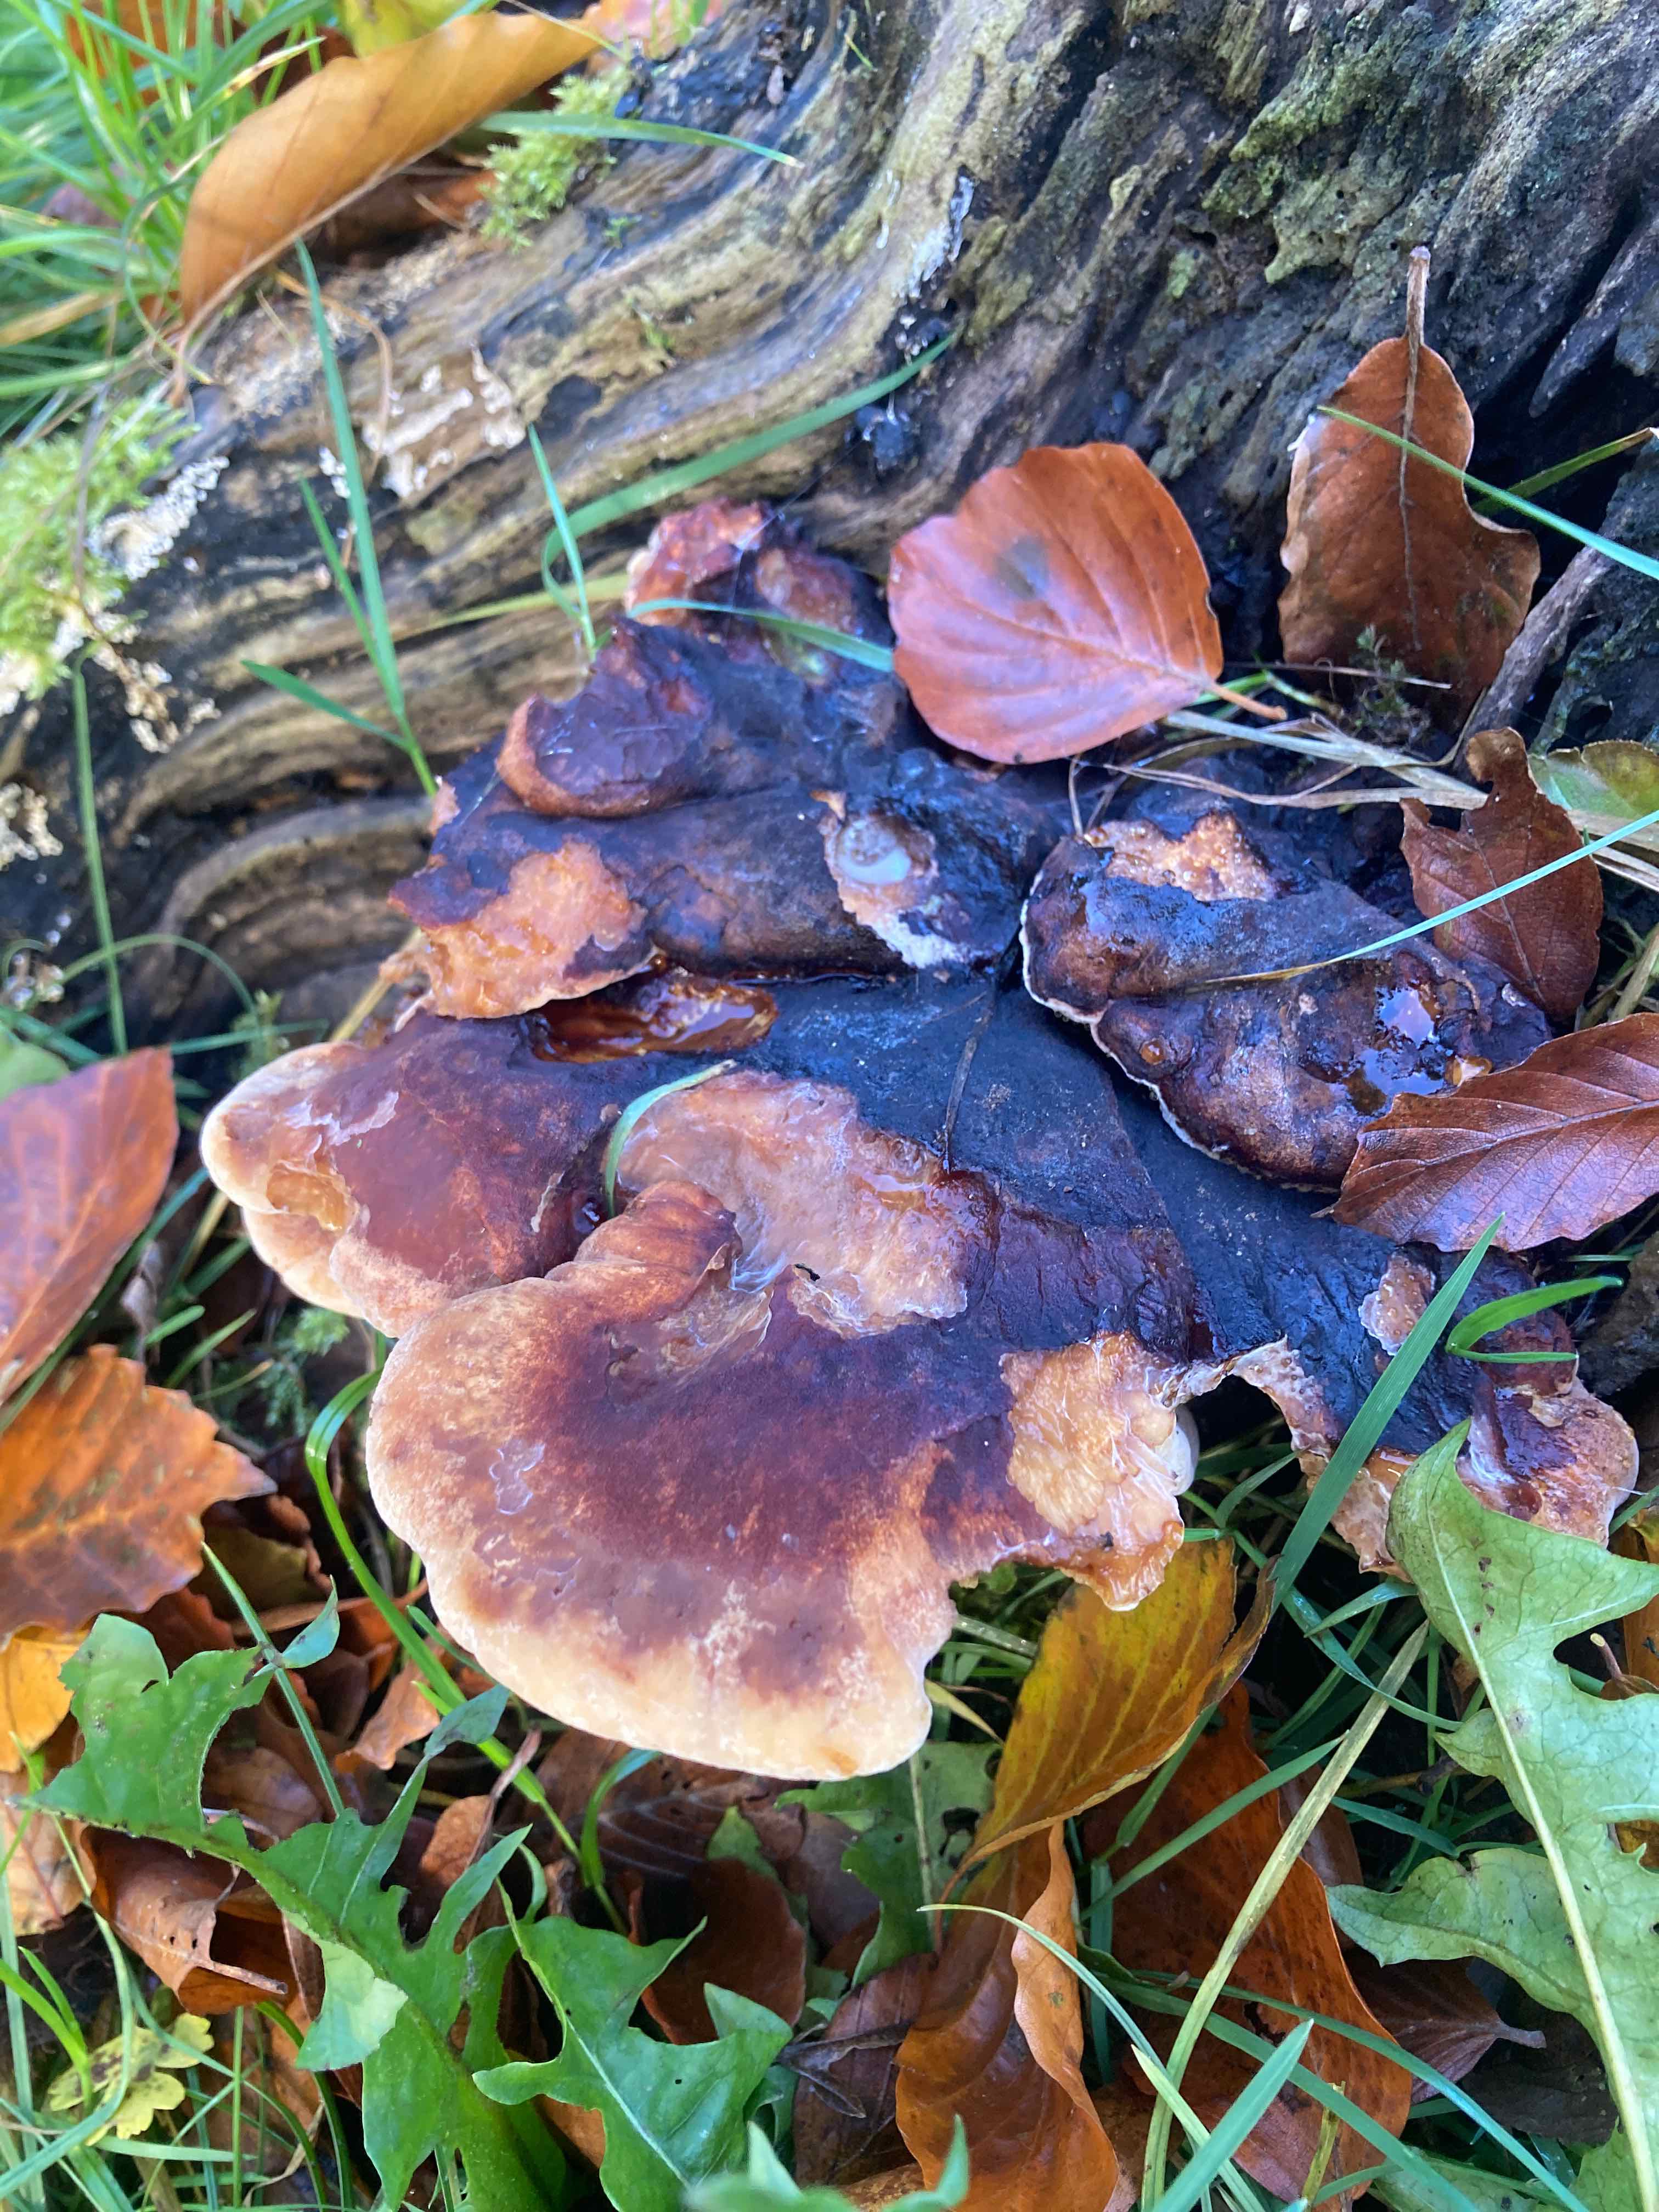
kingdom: Fungi
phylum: Basidiomycota
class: Agaricomycetes
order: Polyporales
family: Ischnodermataceae
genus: Ischnoderma
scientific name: Ischnoderma resinosum
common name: løv-tjæreporesvamp
